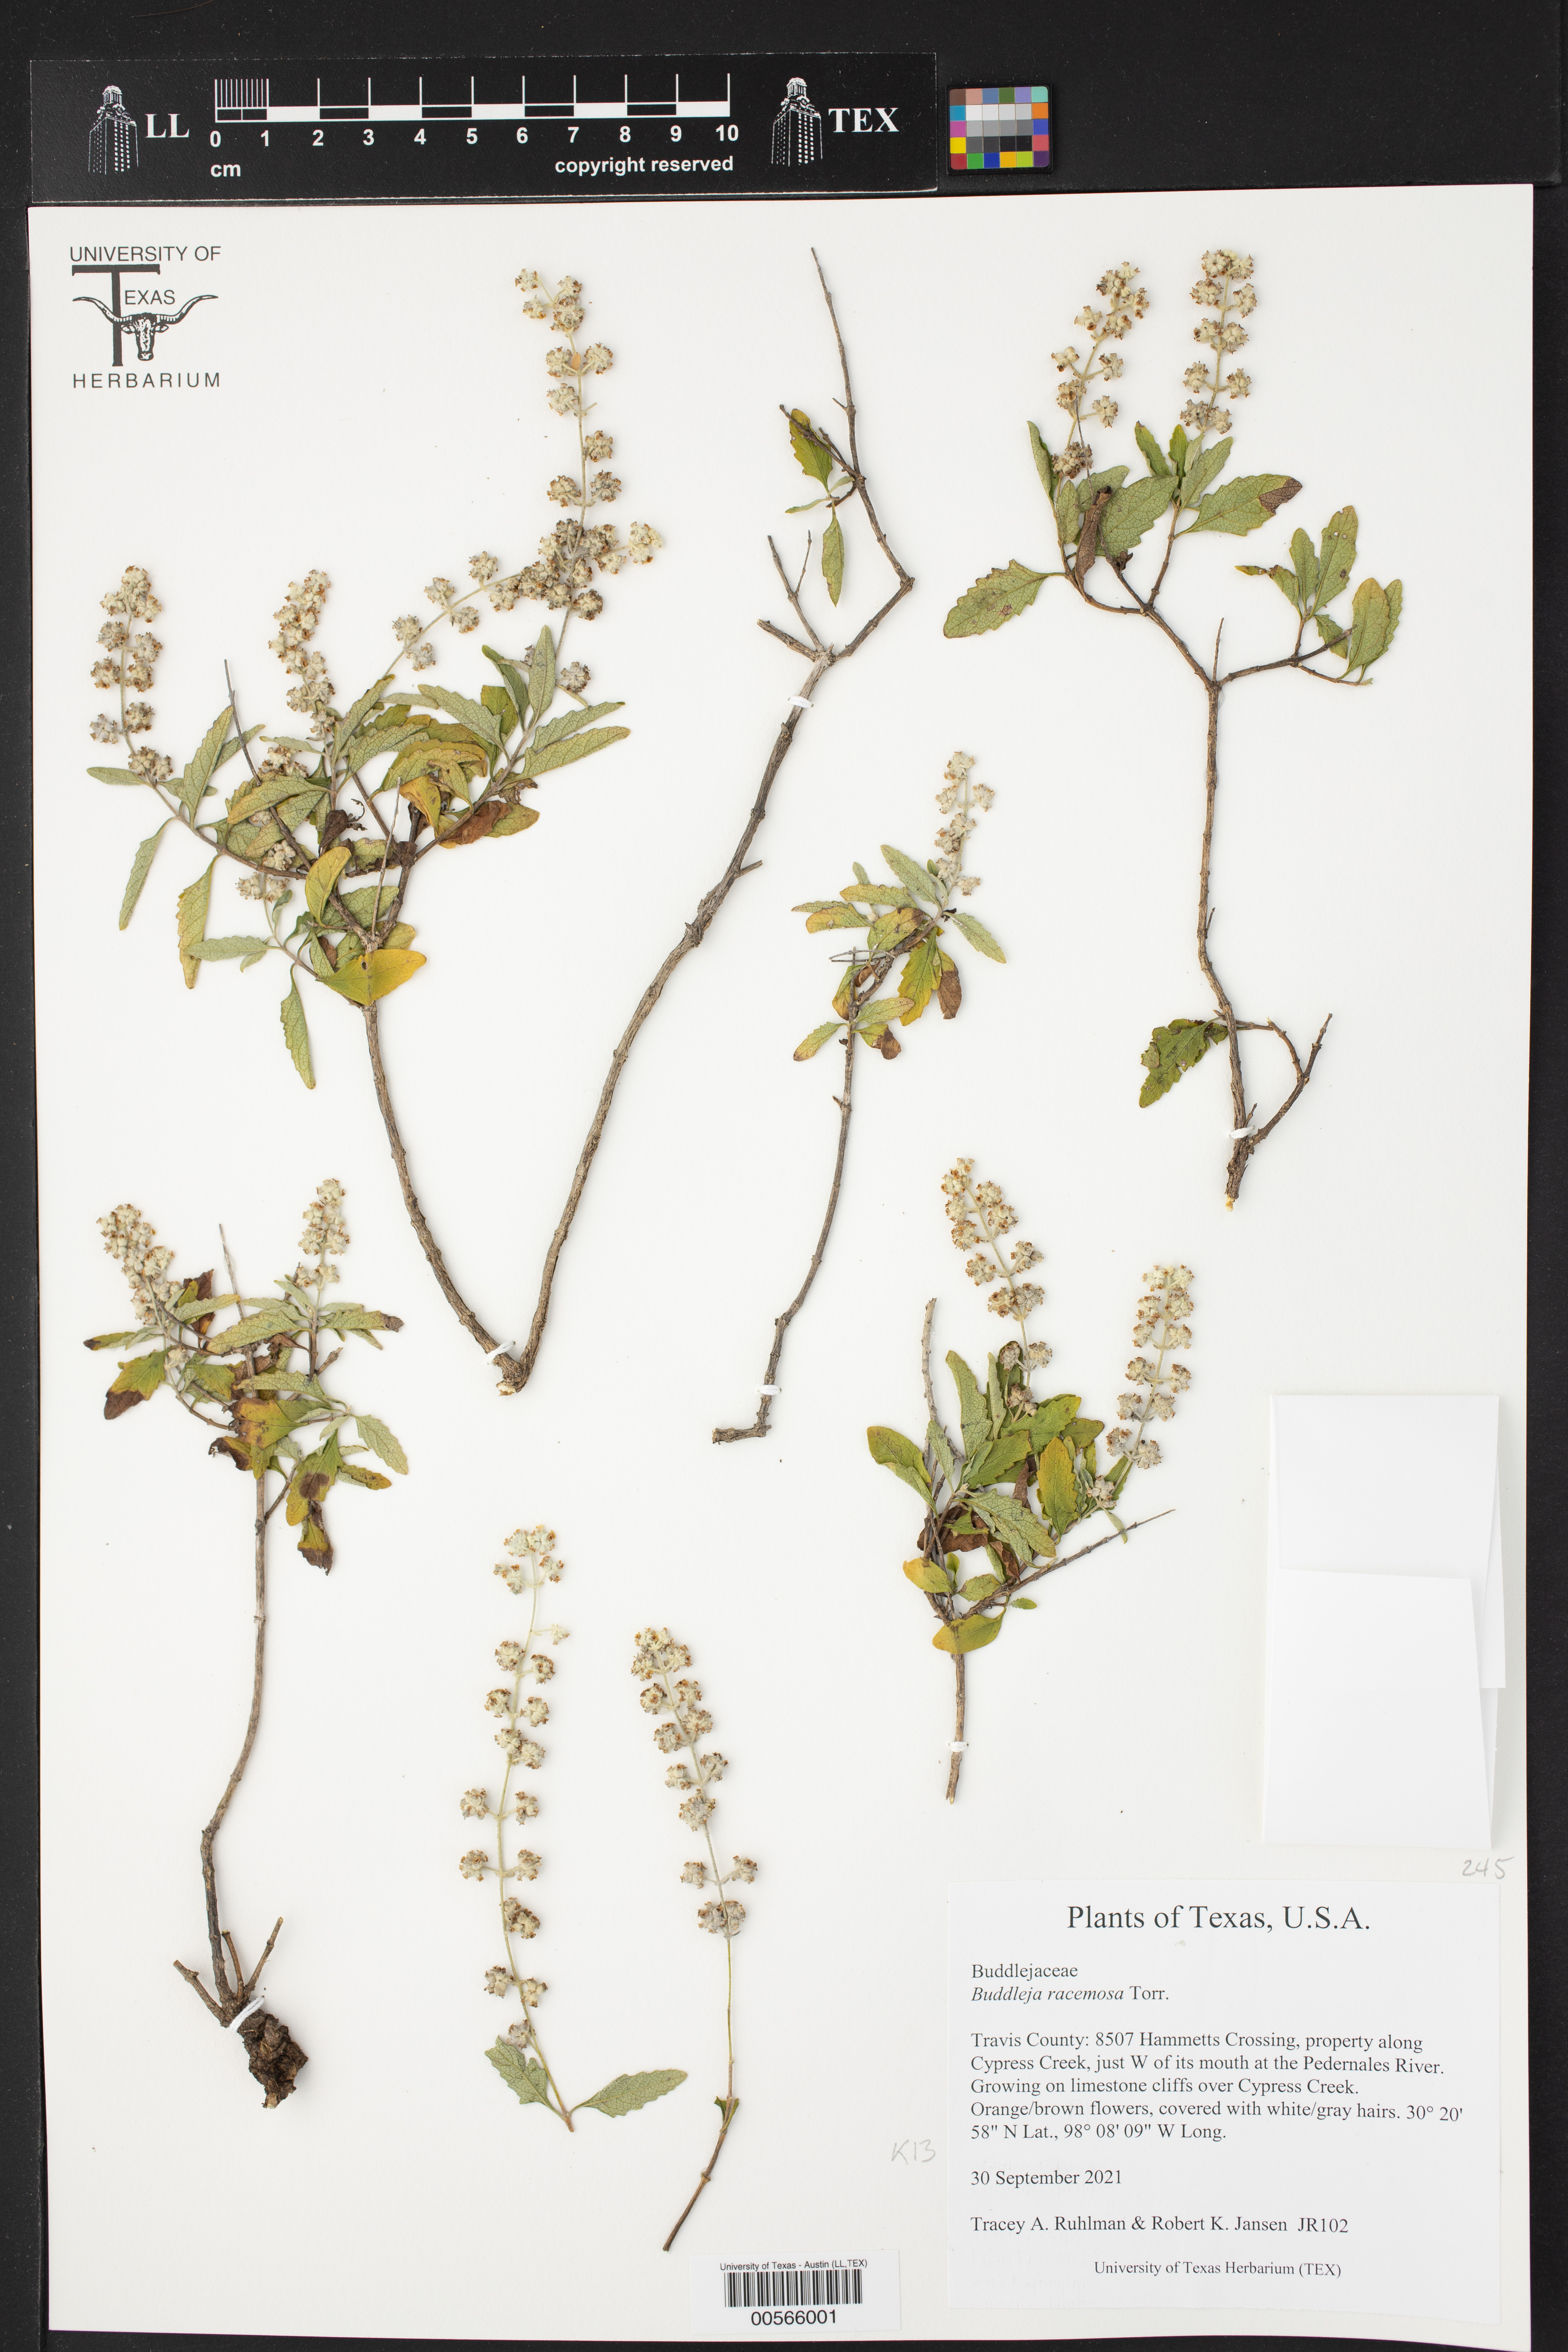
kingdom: Plantae
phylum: Tracheophyta
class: Magnoliopsida
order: Lamiales
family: Scrophulariaceae
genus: Buddleja
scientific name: Buddleja racemosa
